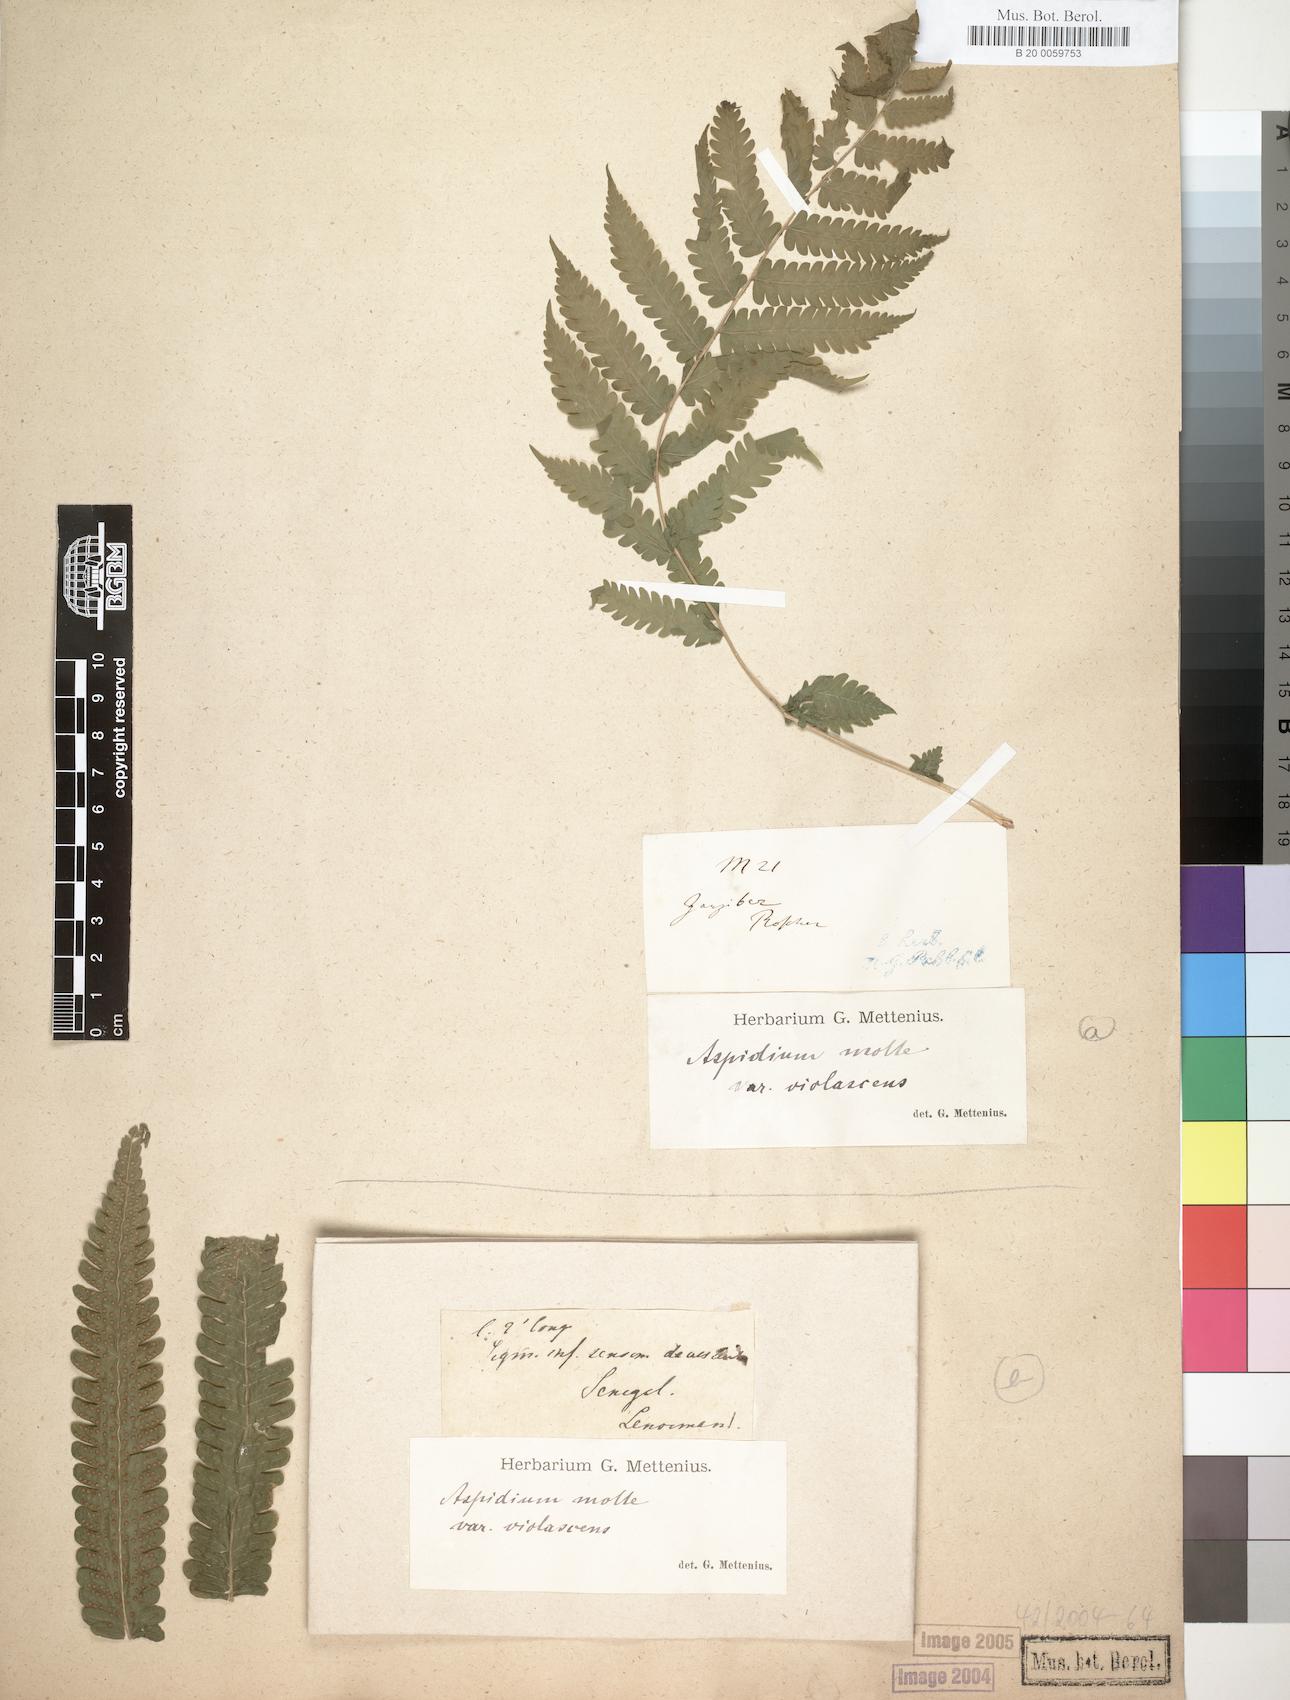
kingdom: Plantae
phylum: Tracheophyta
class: Polypodiopsida
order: Polypodiales
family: Thelypteridaceae
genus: Christella
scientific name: Christella dentata
